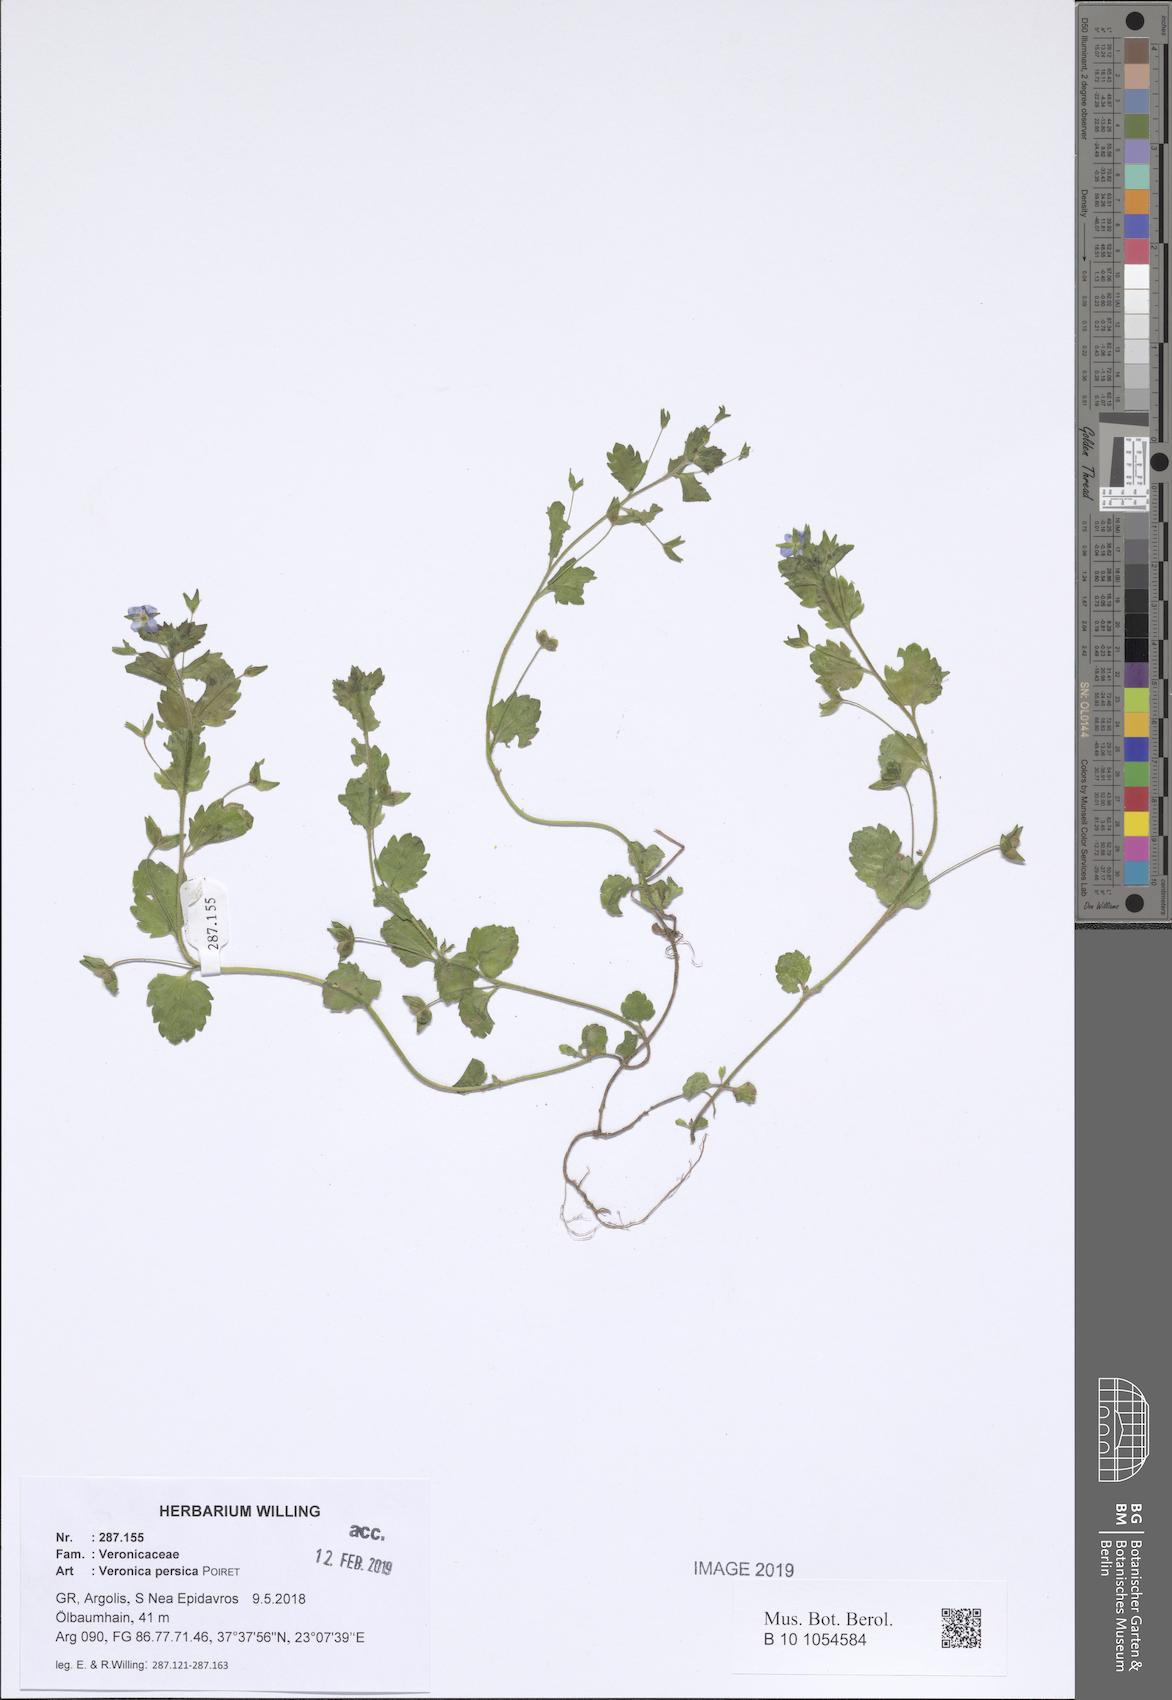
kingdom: Plantae
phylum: Tracheophyta
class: Magnoliopsida
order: Lamiales
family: Plantaginaceae
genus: Veronica
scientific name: Veronica persica
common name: Common field-speedwell
